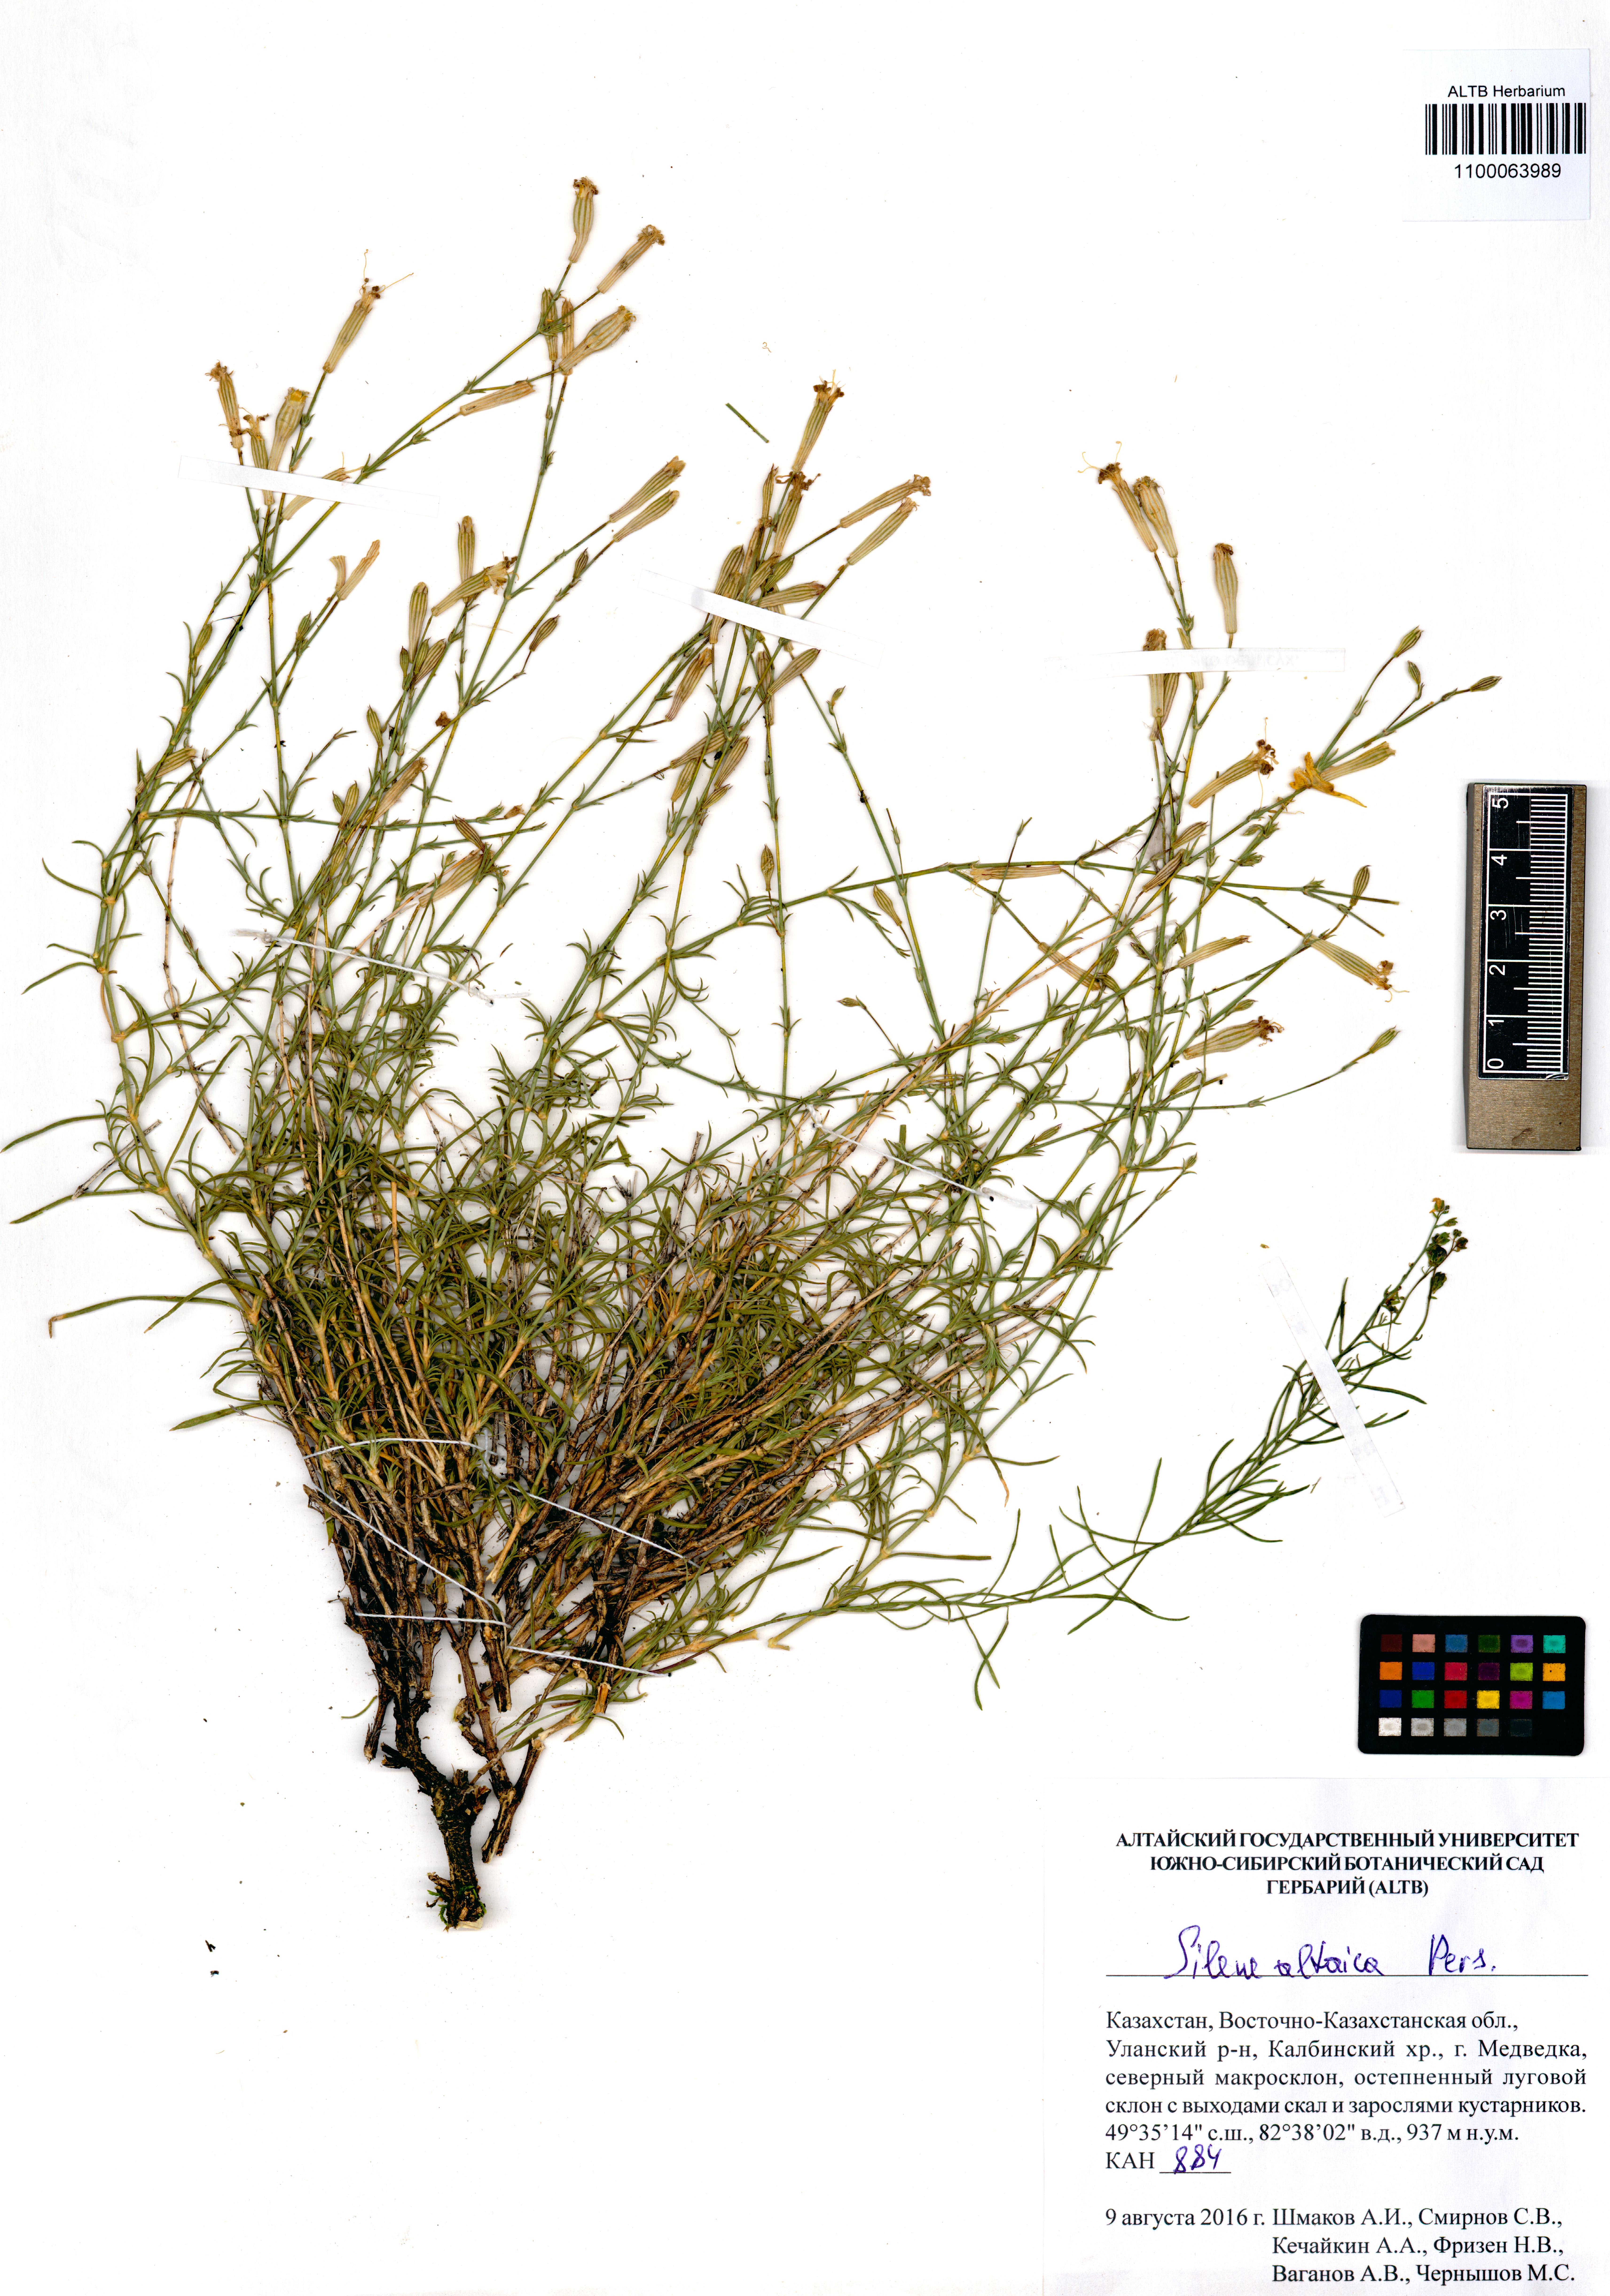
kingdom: Plantae
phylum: Tracheophyta
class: Magnoliopsida
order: Caryophyllales
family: Caryophyllaceae
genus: Silene
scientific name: Silene altaica
